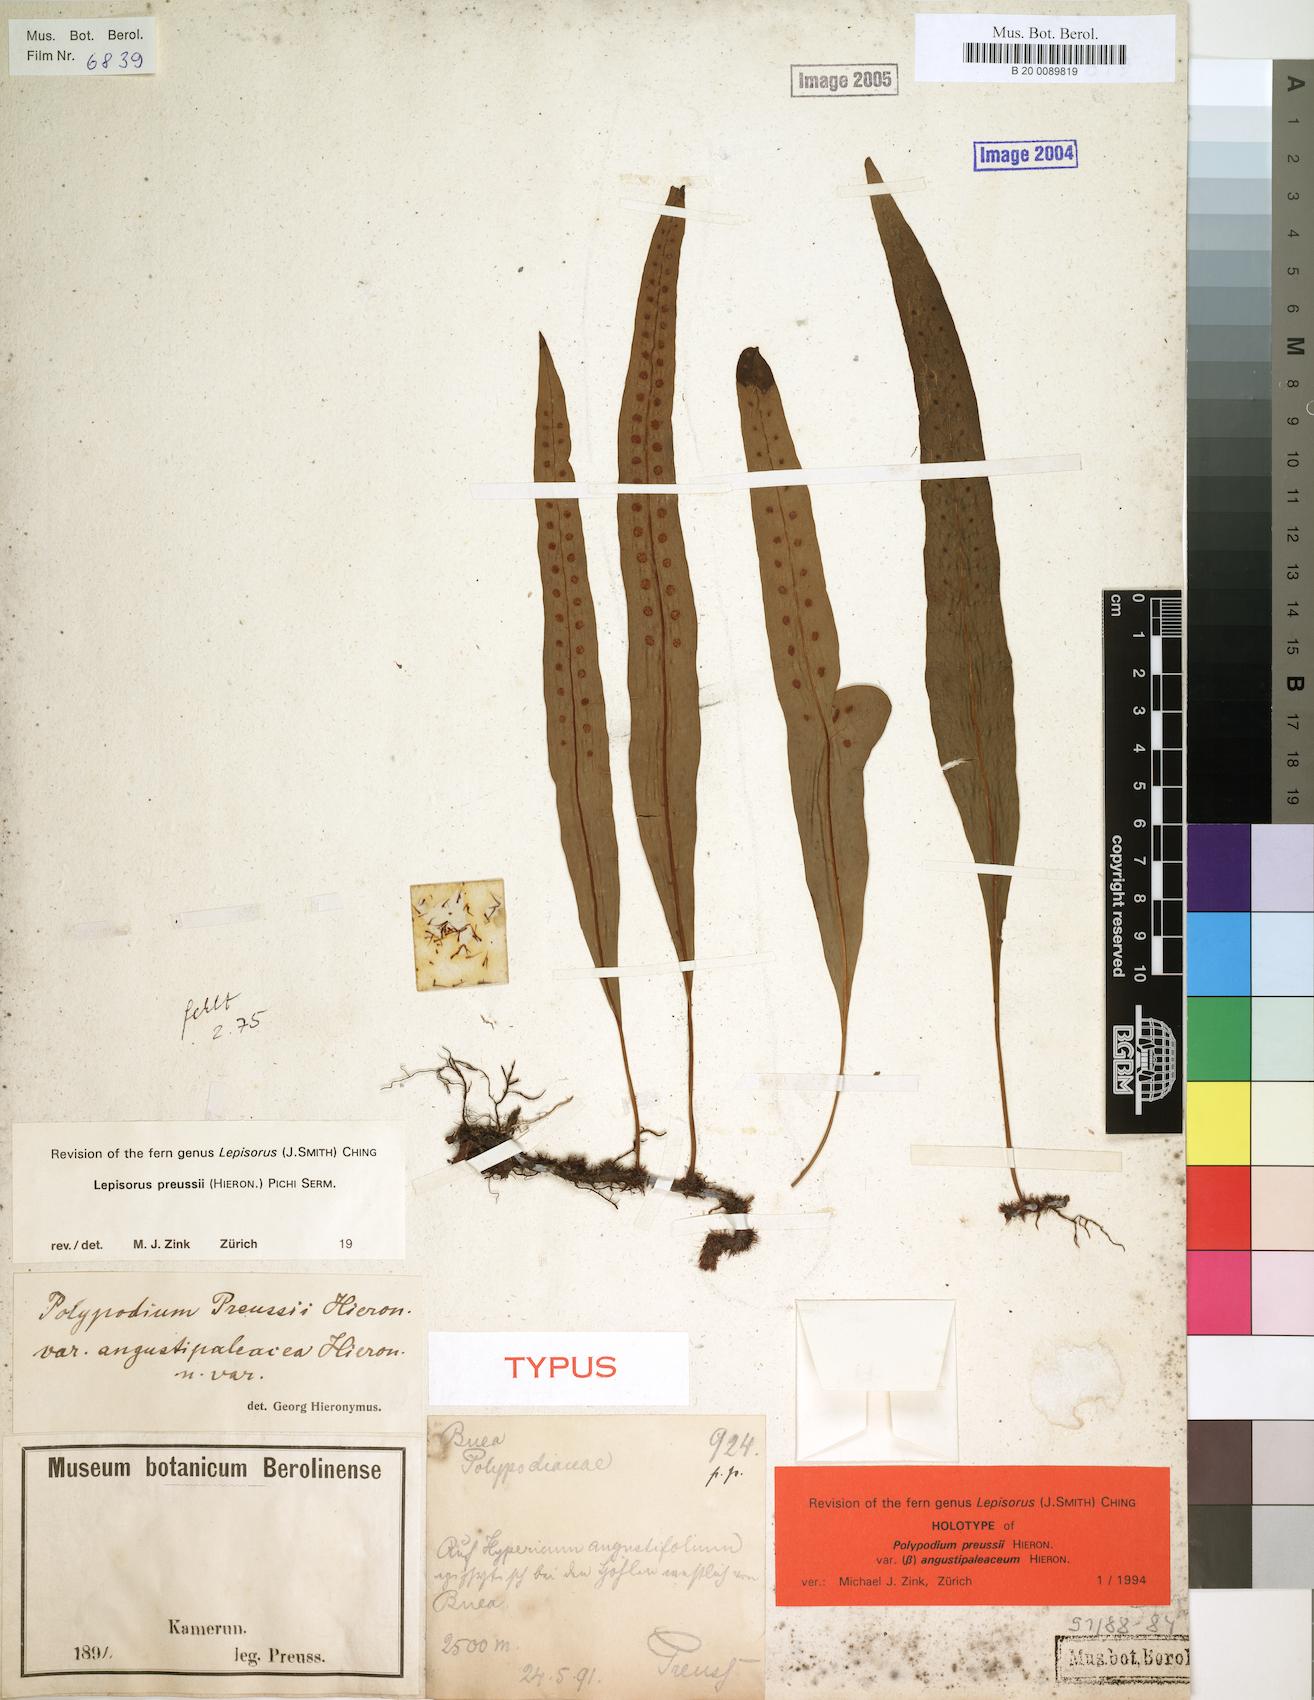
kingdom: Plantae
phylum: Tracheophyta
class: Polypodiopsida
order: Polypodiales
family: Polypodiaceae
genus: Lepisorus
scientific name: Lepisorus excavatus
